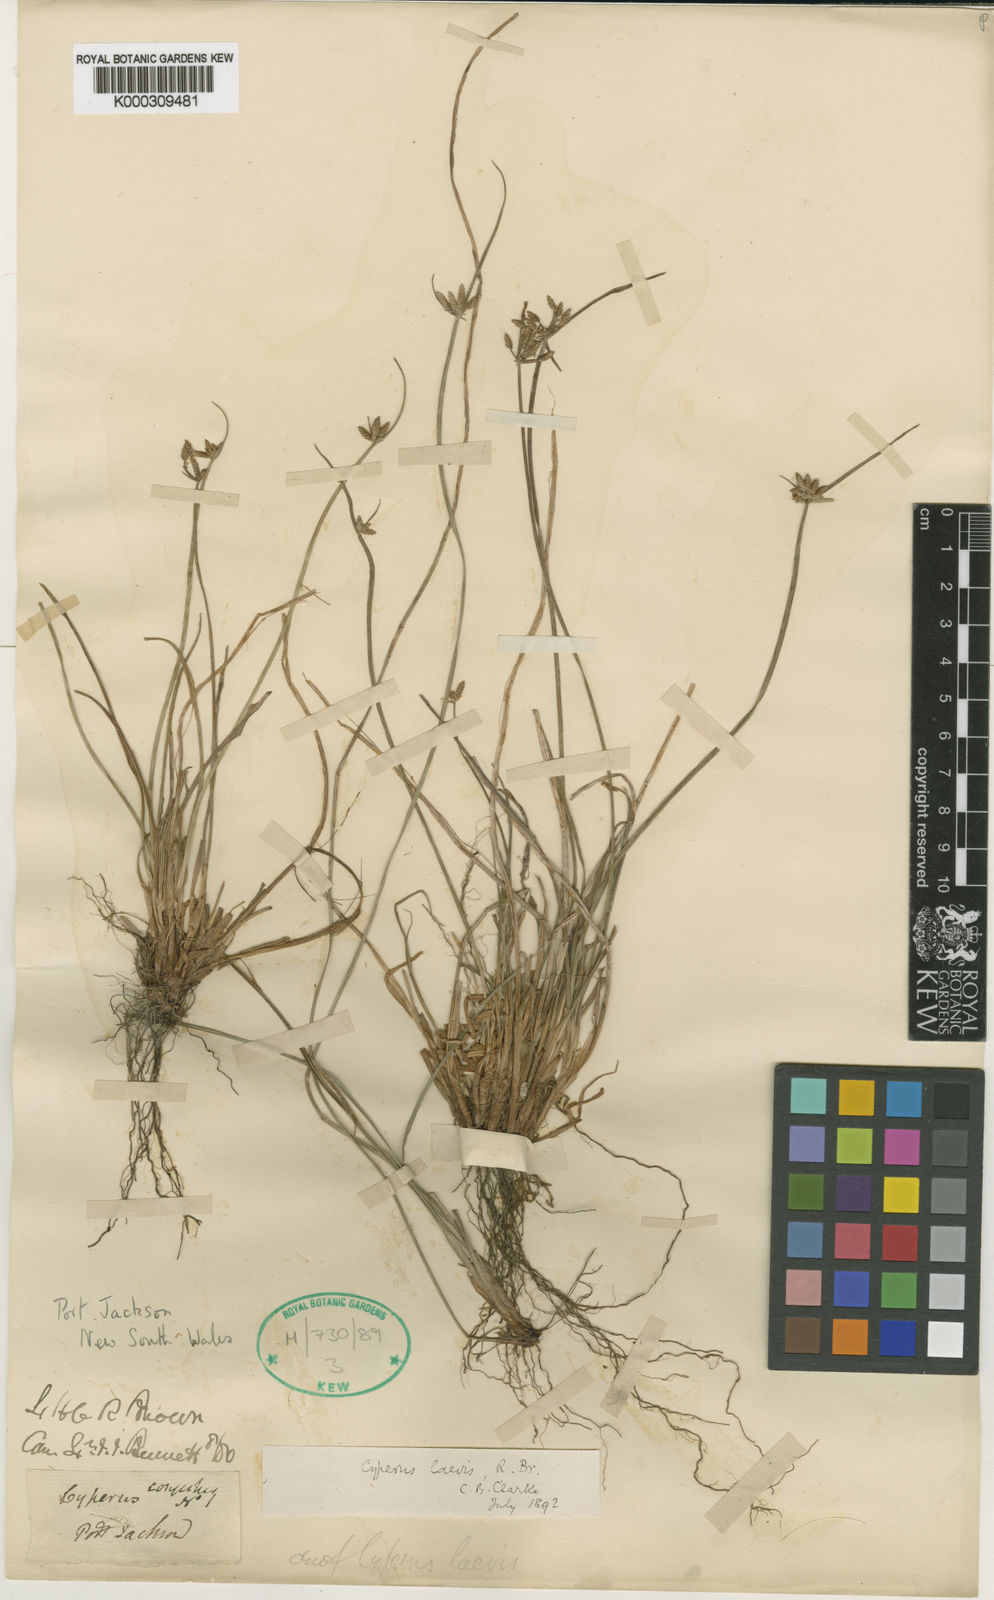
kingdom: Plantae
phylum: Tracheophyta
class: Liliopsida
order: Poales
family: Cyperaceae
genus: Cyperus
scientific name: Cyperus laevis
